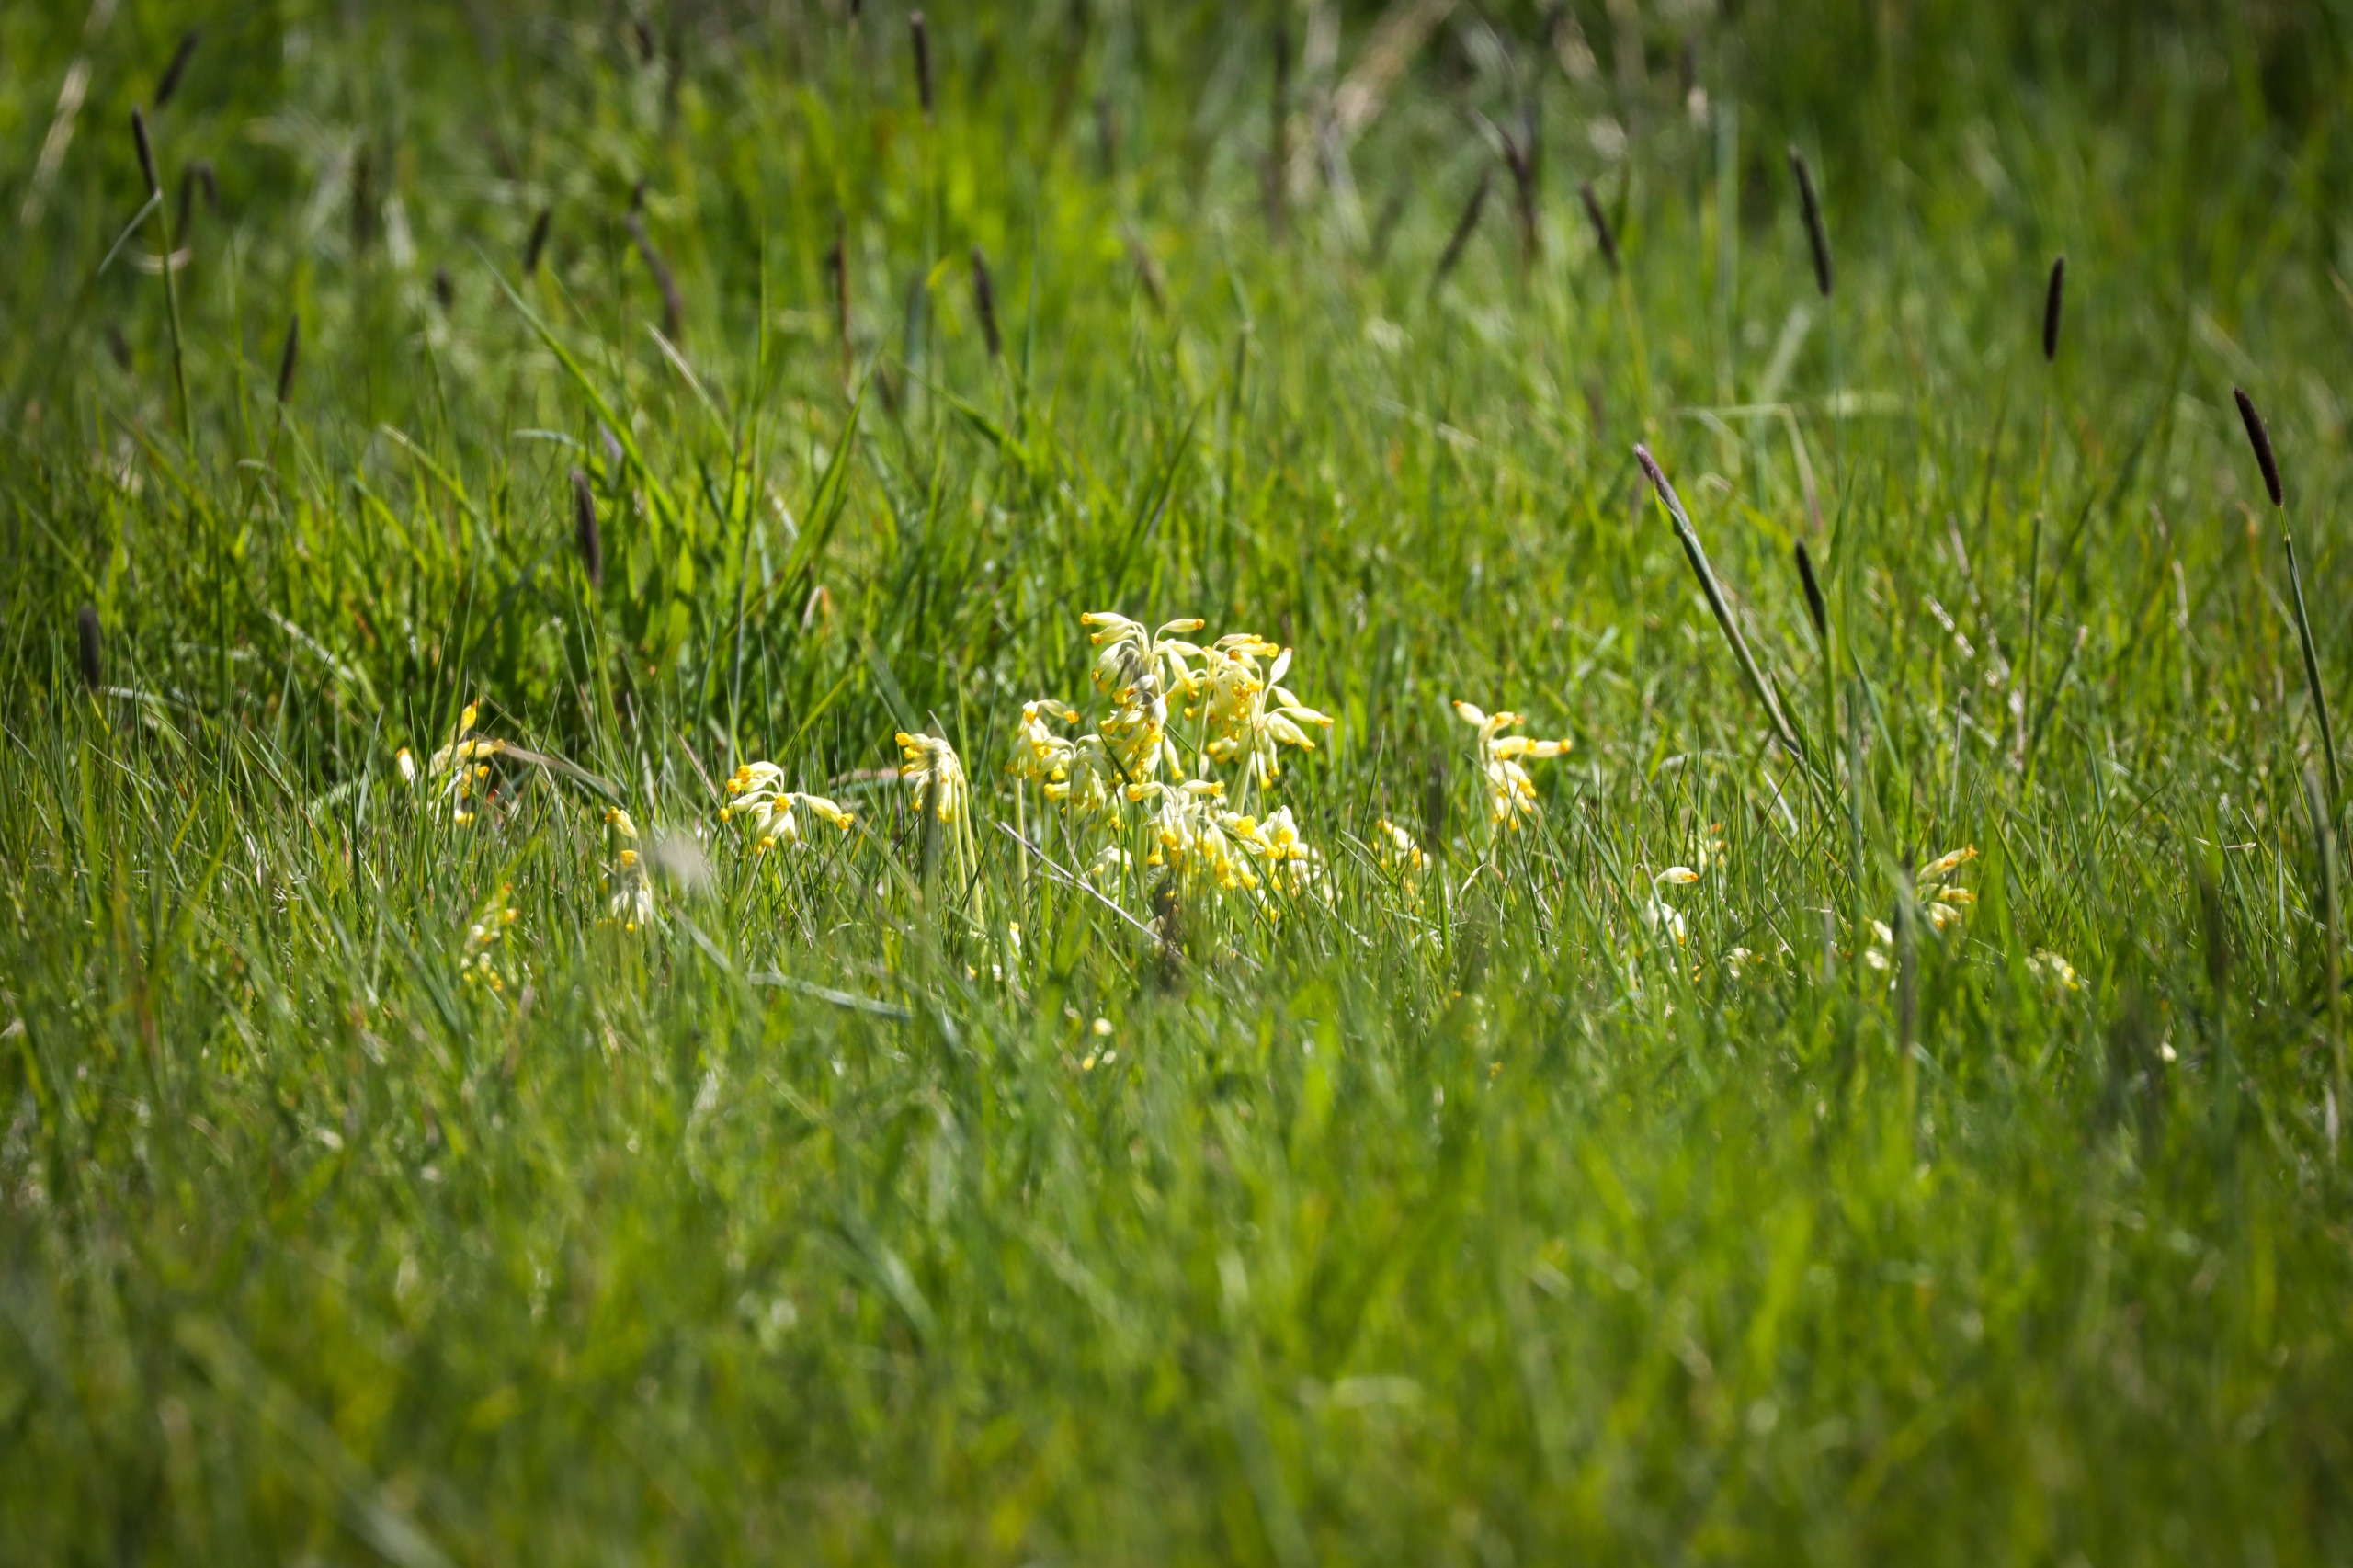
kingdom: Plantae
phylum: Tracheophyta
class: Magnoliopsida
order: Ericales
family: Primulaceae
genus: Primula
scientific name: Primula veris
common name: Hulkravet kodriver
